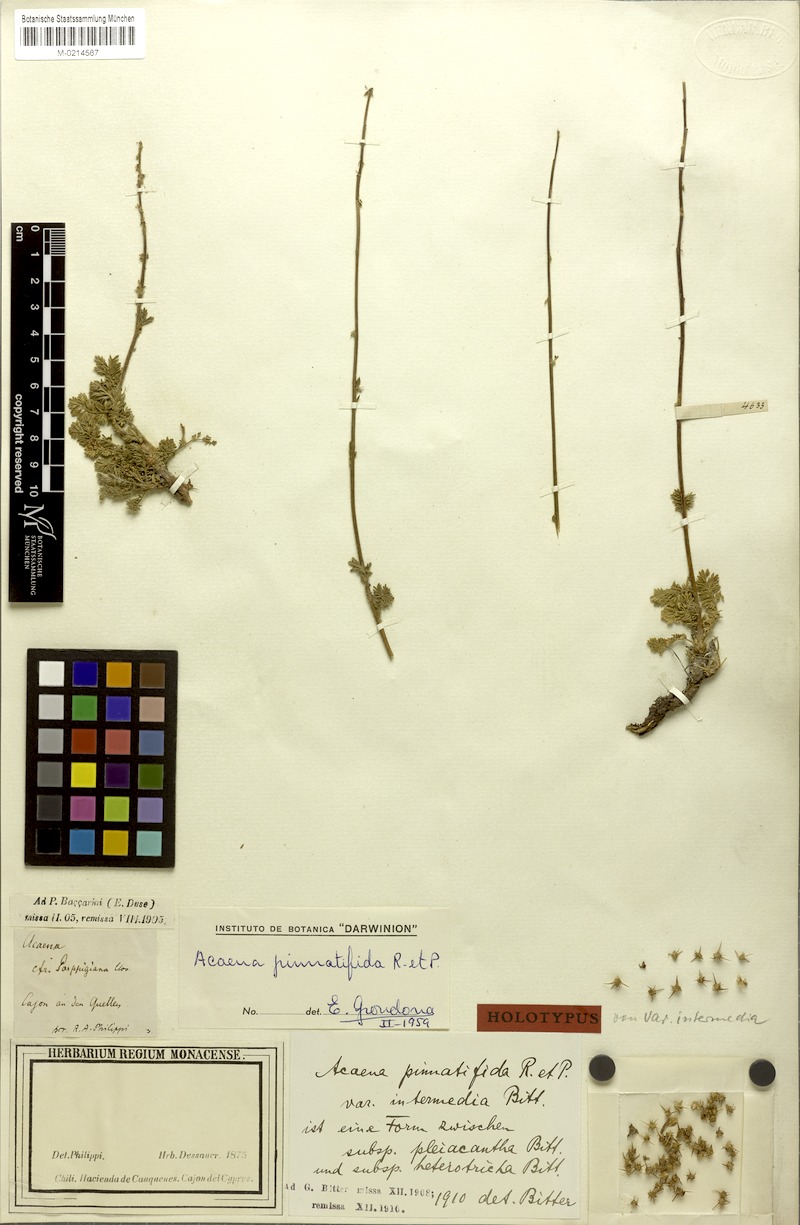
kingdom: Plantae
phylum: Tracheophyta
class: Magnoliopsida
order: Rosales
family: Rosaceae
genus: Acaena
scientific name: Acaena pinnatifida
